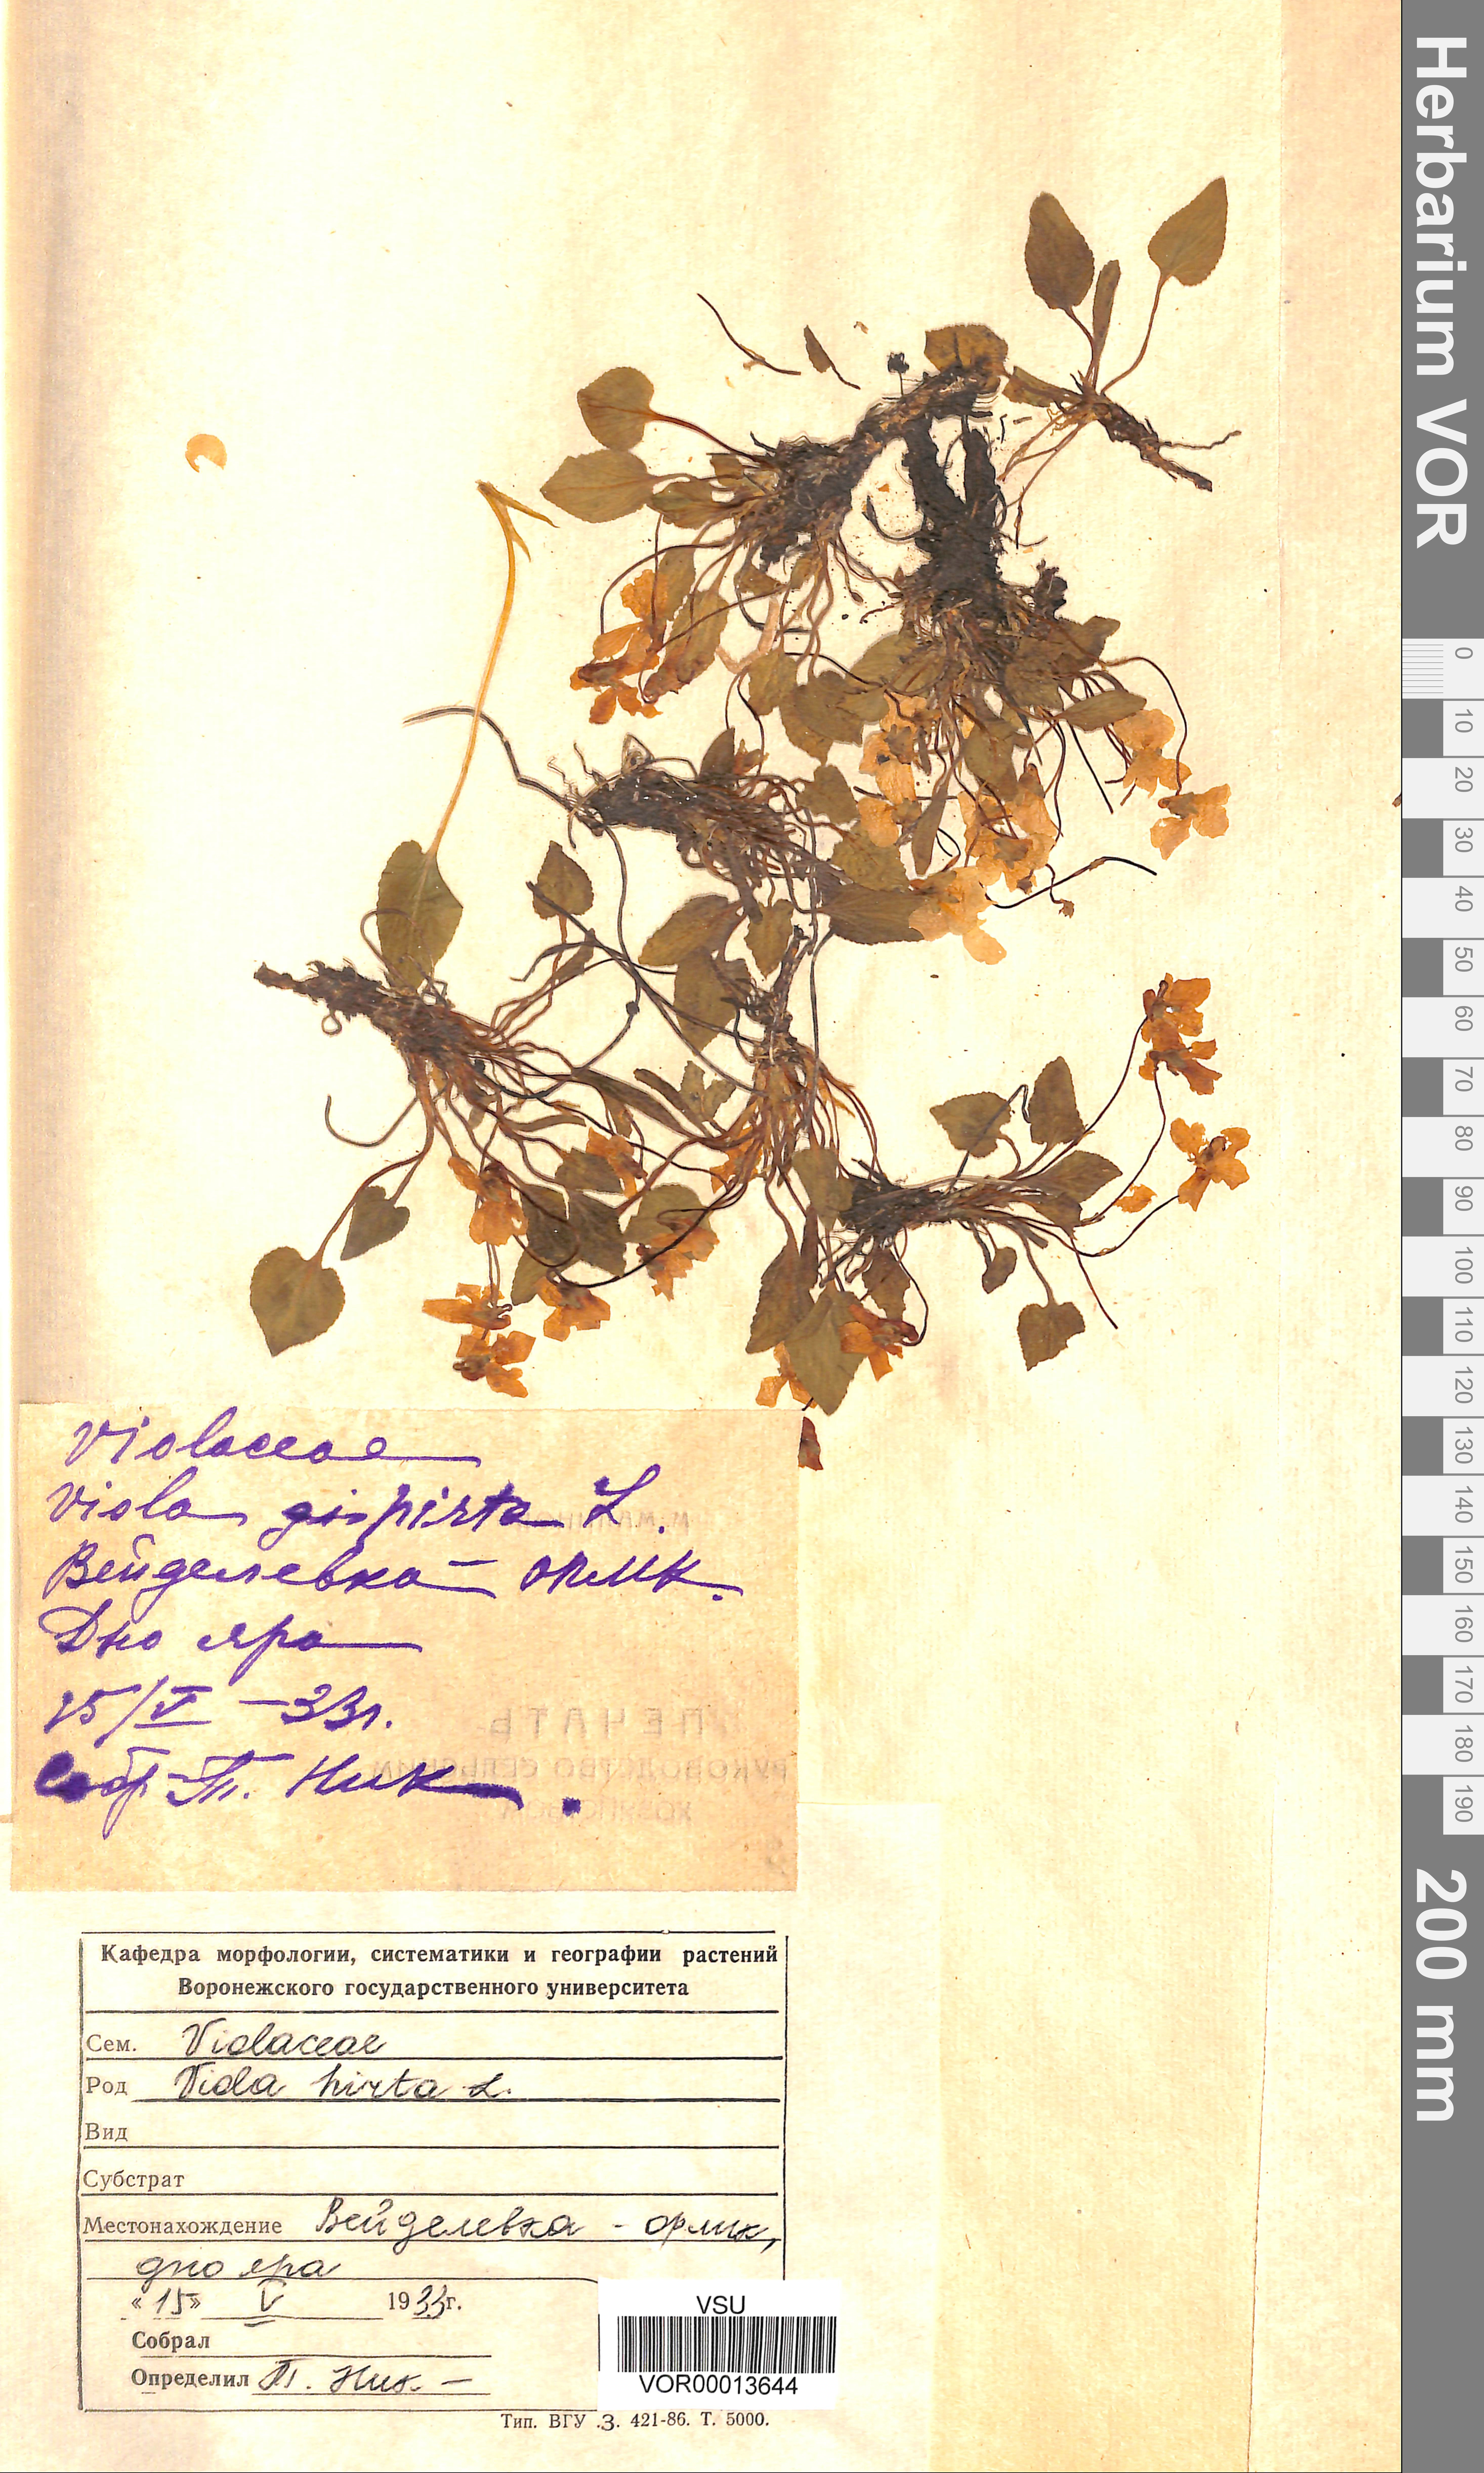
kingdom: Plantae
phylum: Tracheophyta
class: Magnoliopsida
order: Malpighiales
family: Violaceae
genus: Viola
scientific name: Viola hirta
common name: Hairy violet
